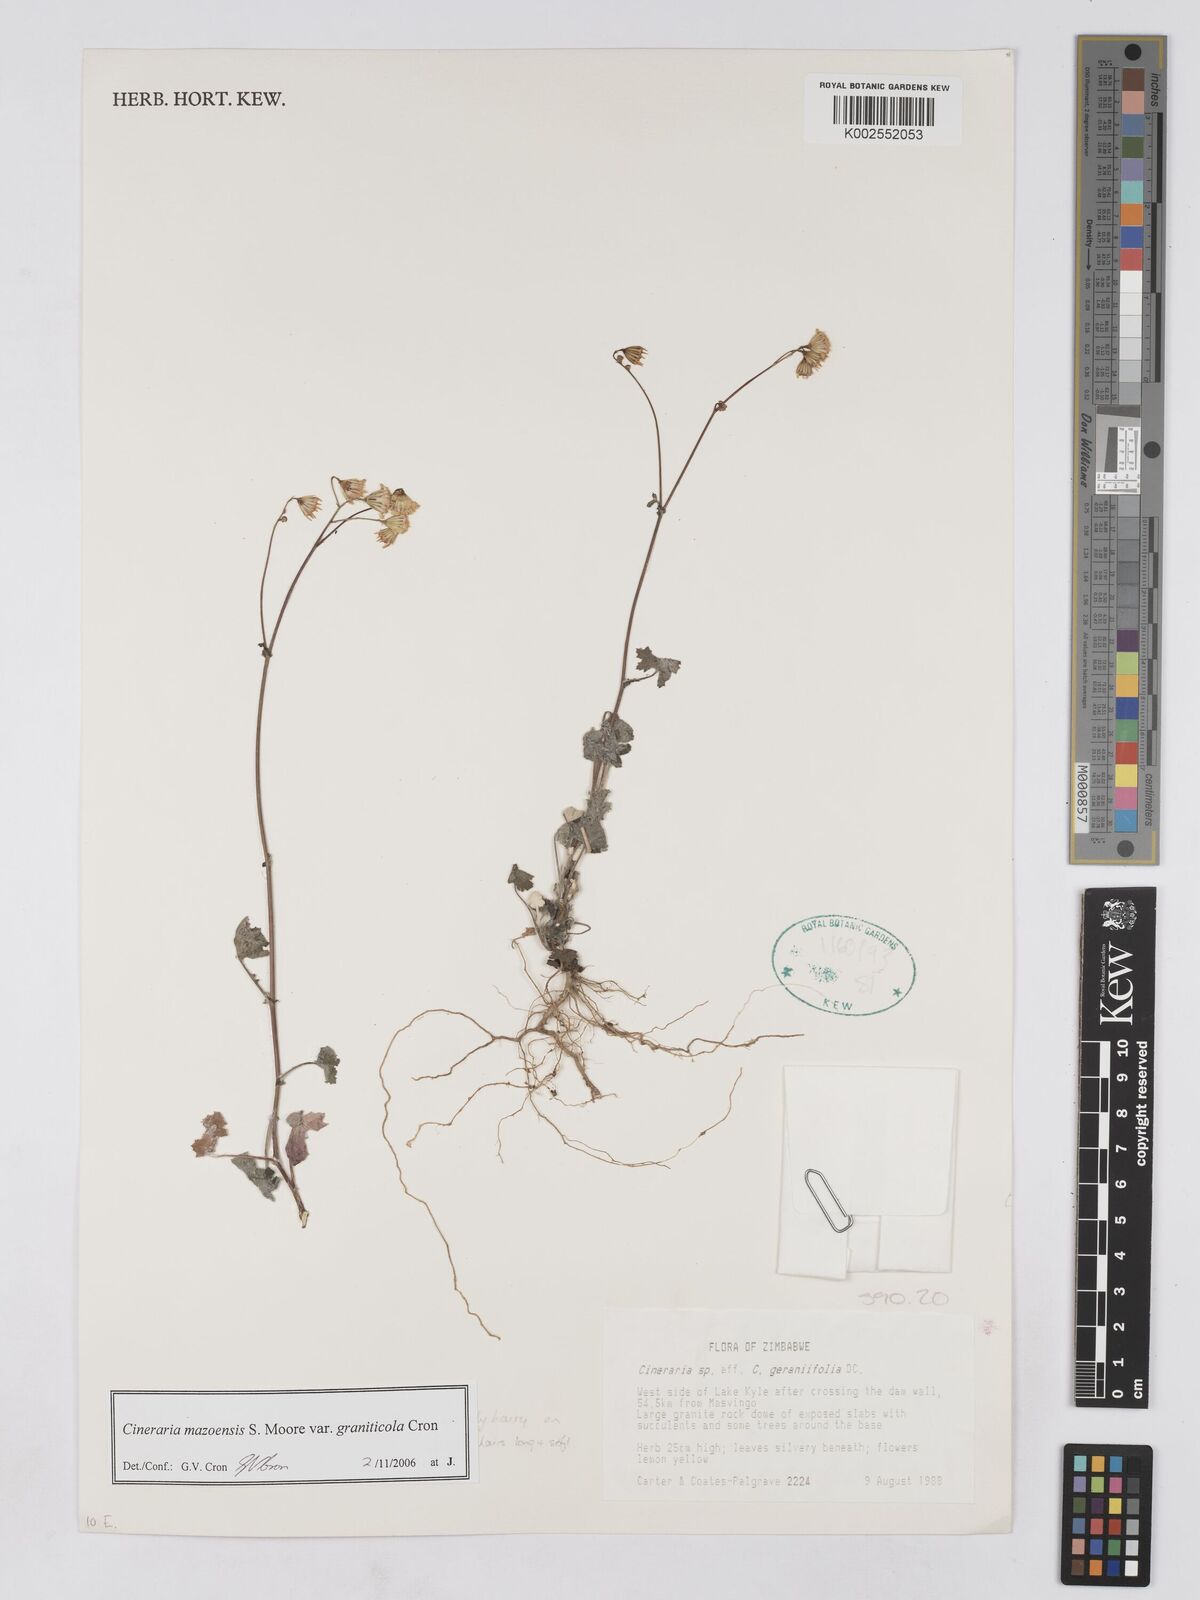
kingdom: Plantae
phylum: Tracheophyta
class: Magnoliopsida
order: Asterales
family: Asteraceae
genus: Cineraria
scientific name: Cineraria mazoensis
